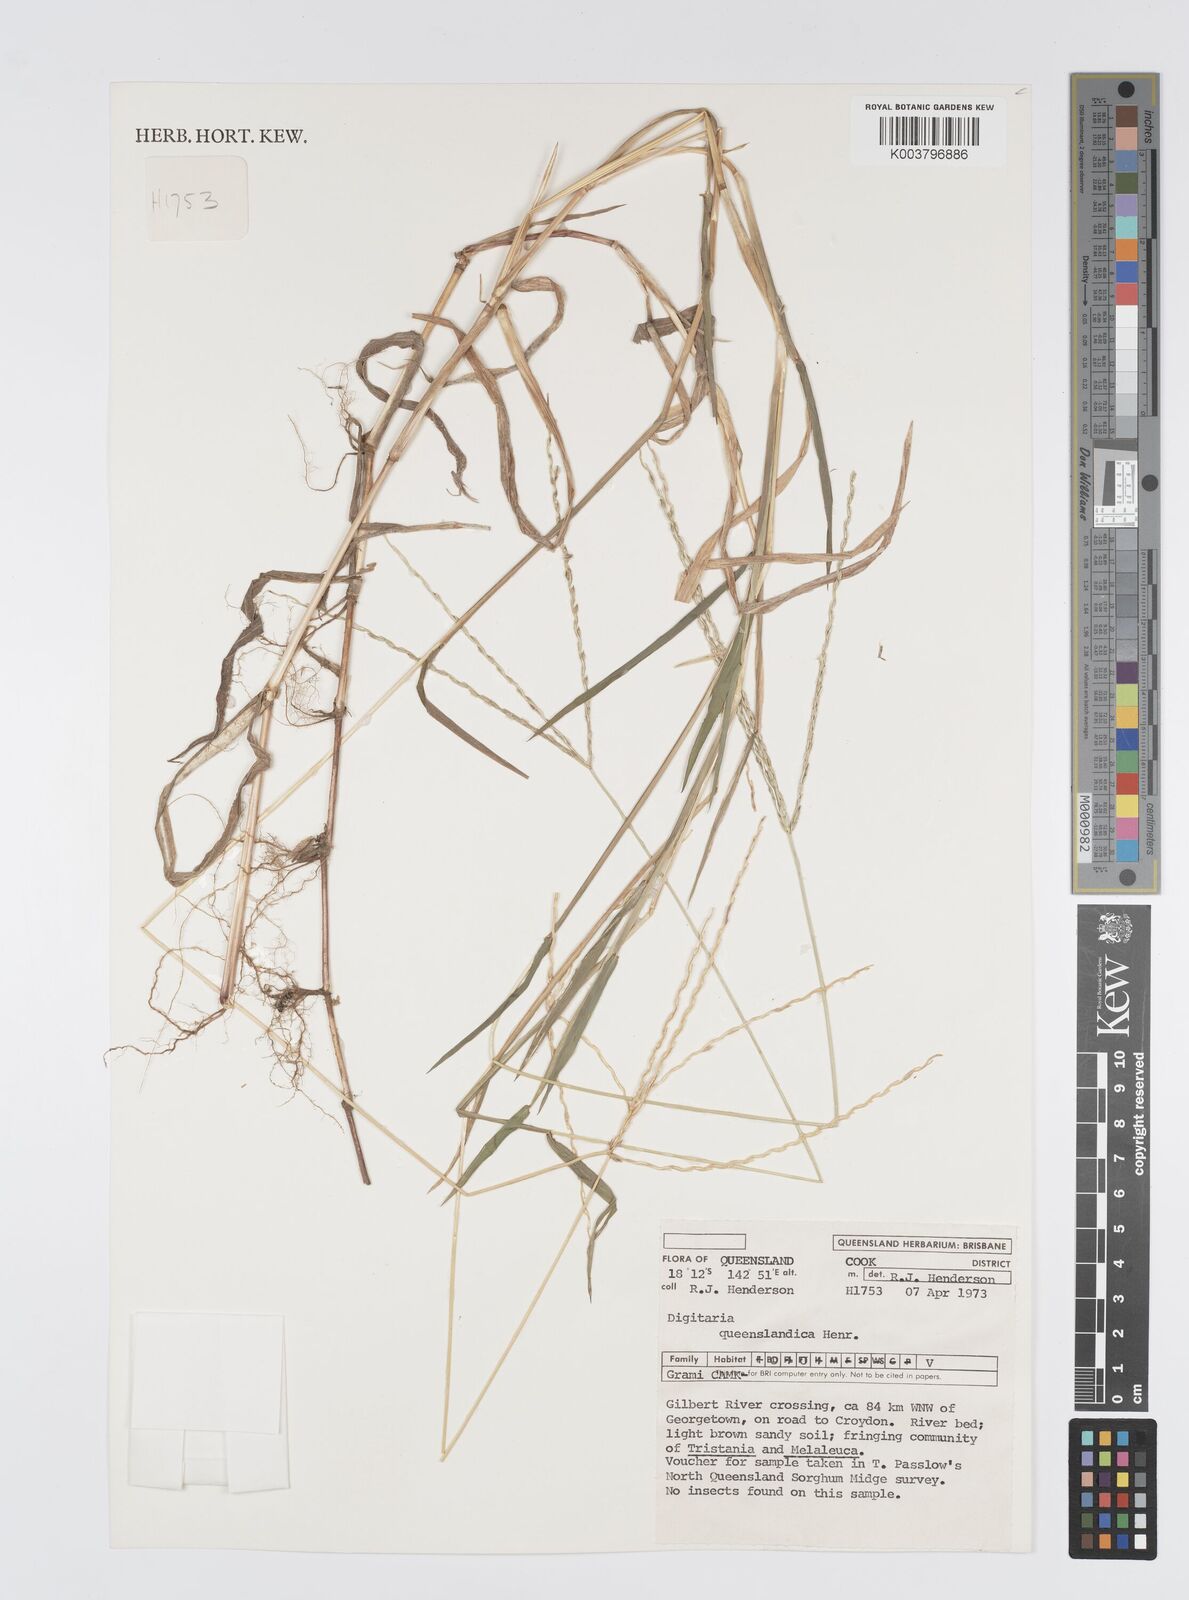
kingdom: Plantae
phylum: Tracheophyta
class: Liliopsida
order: Poales
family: Poaceae
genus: Digitaria
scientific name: Digitaria bicornis
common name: Asian crabgrass
